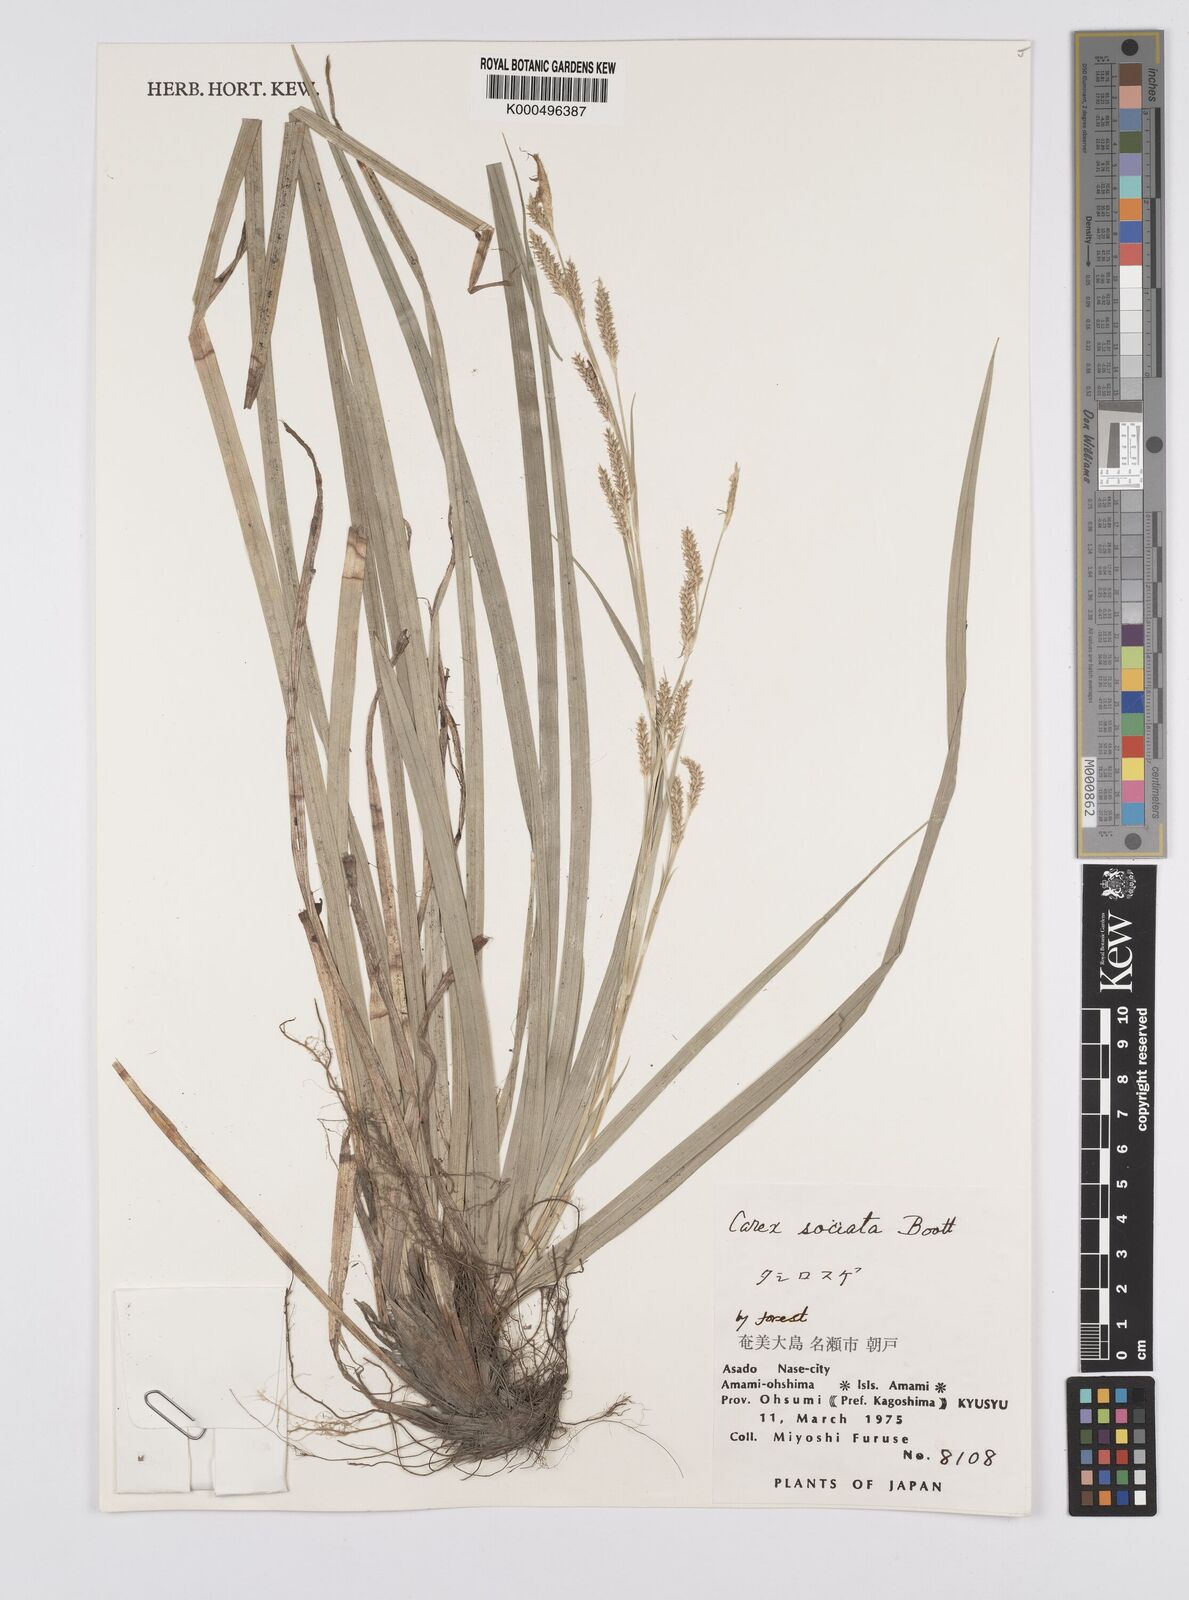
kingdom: Plantae
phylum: Tracheophyta
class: Liliopsida
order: Poales
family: Cyperaceae
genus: Carex
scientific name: Carex chinensis
